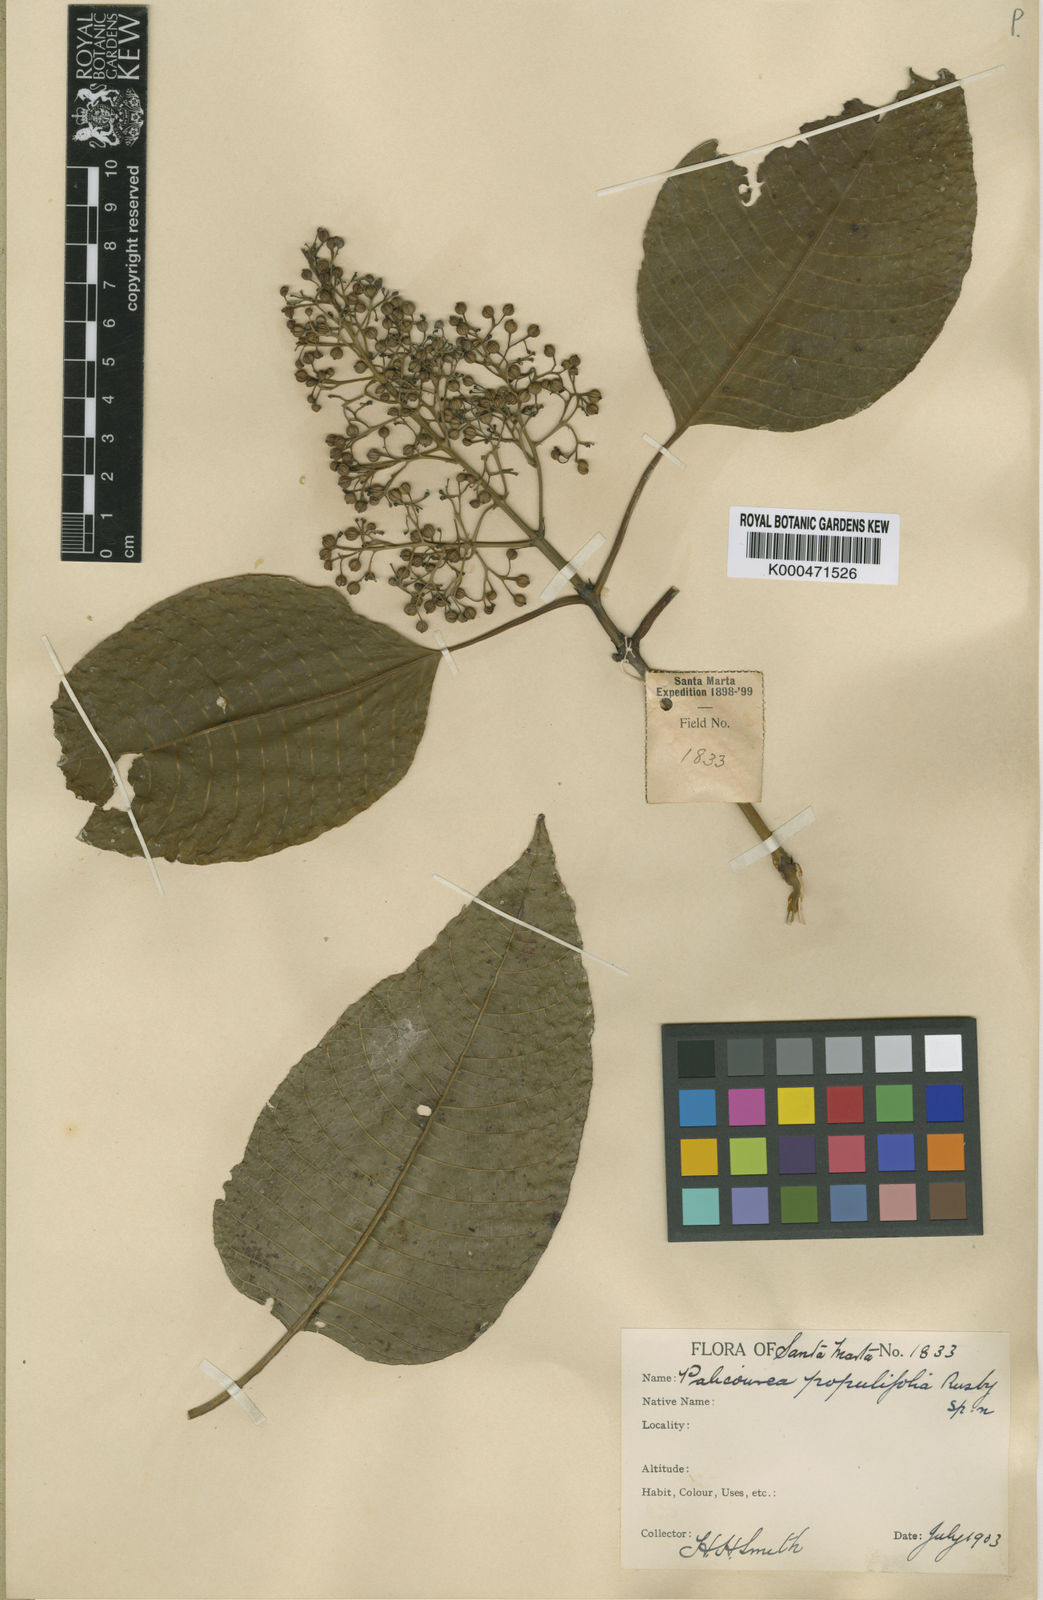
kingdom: Plantae
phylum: Tracheophyta
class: Magnoliopsida
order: Gentianales
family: Rubiaceae
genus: Palicourea
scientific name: Palicourea petiolaris
